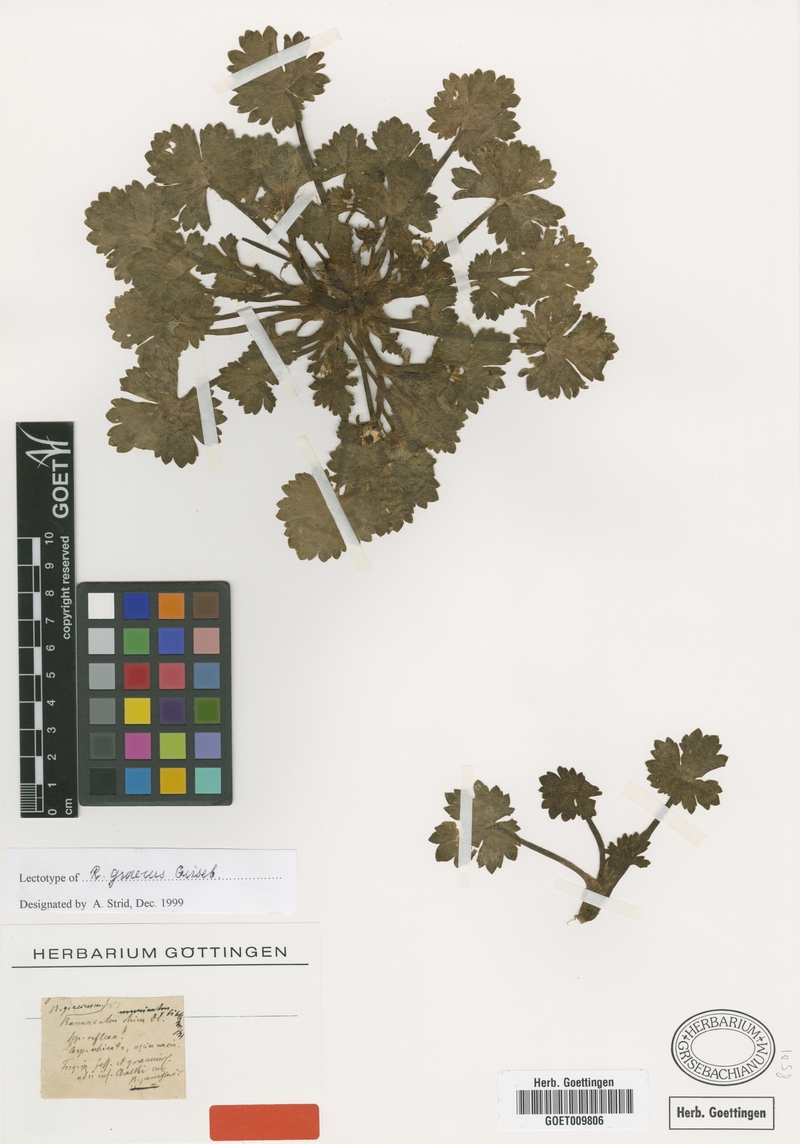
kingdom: Plantae
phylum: Tracheophyta
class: Magnoliopsida
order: Ranunculales
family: Ranunculaceae
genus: Ranunculus
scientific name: Ranunculus muricatus
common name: Rough-fruited buttercup
